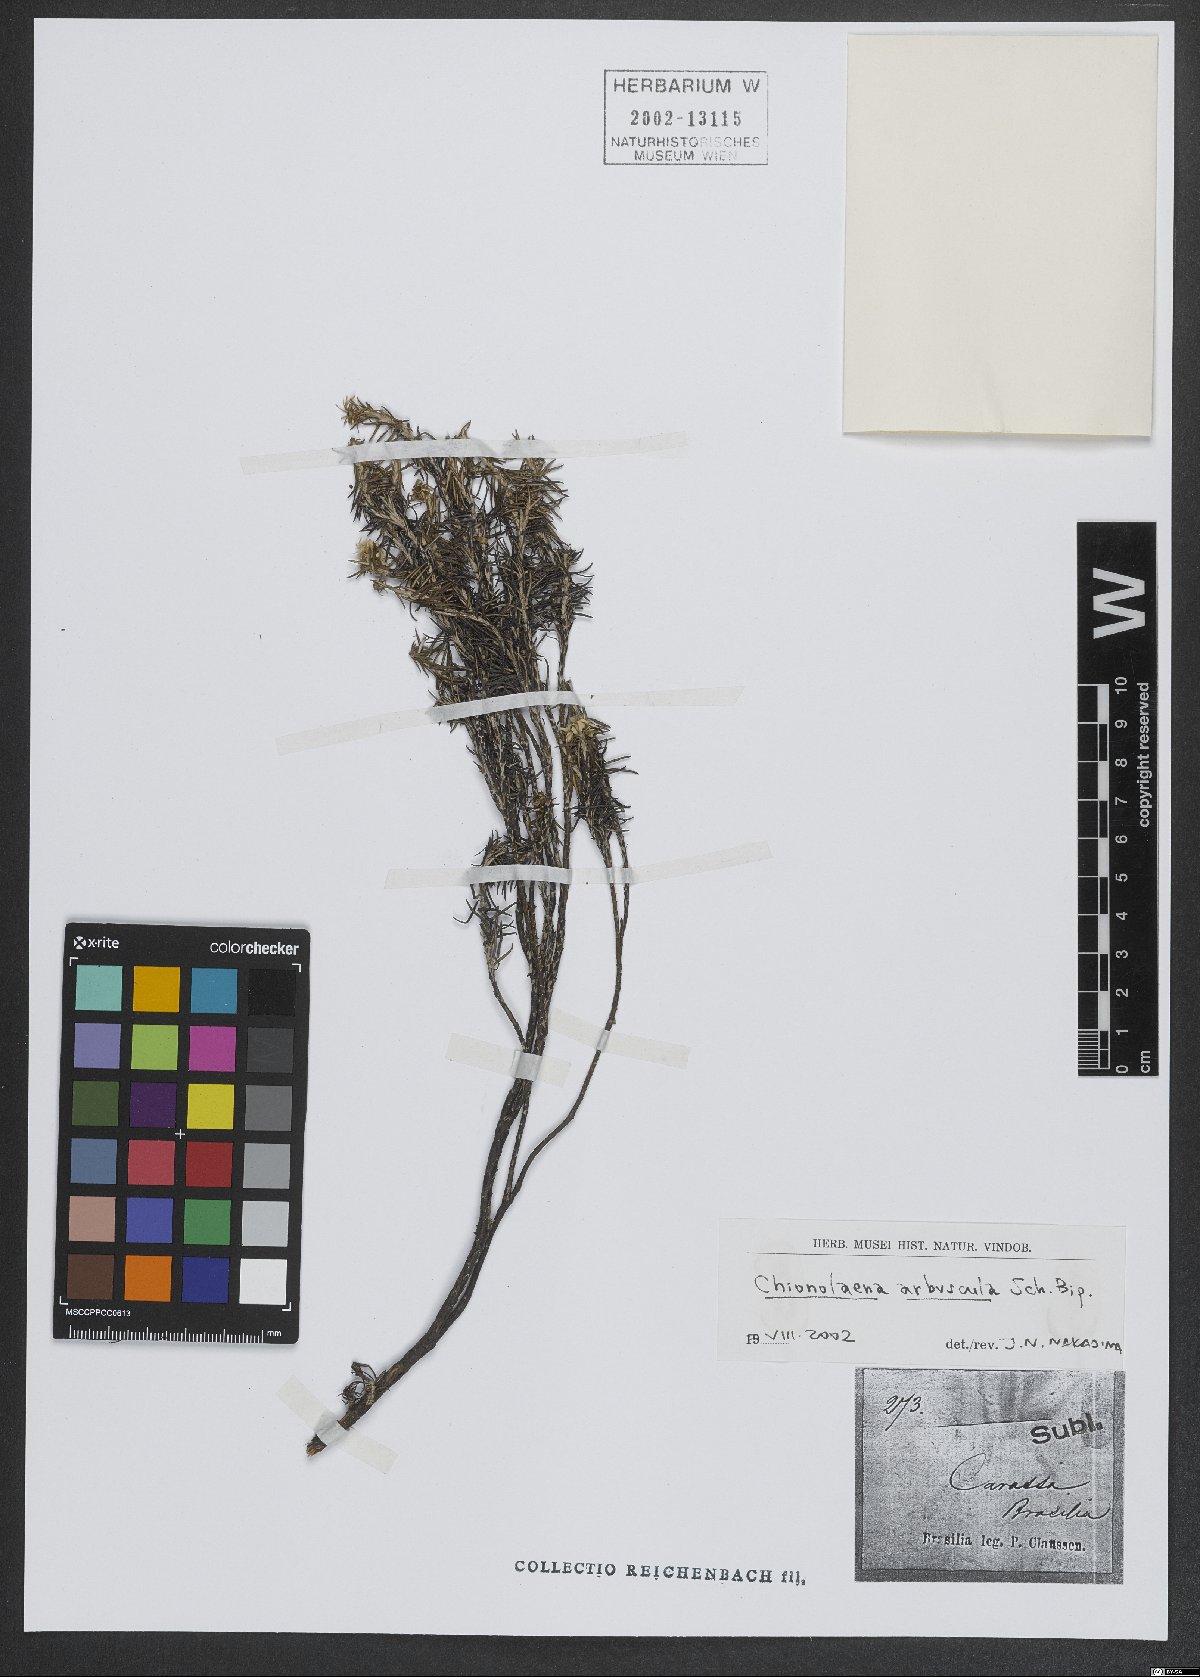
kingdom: Plantae
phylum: Tracheophyta
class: Magnoliopsida
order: Asterales
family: Asteraceae
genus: Chionolaena
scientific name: Chionolaena arbuscula
